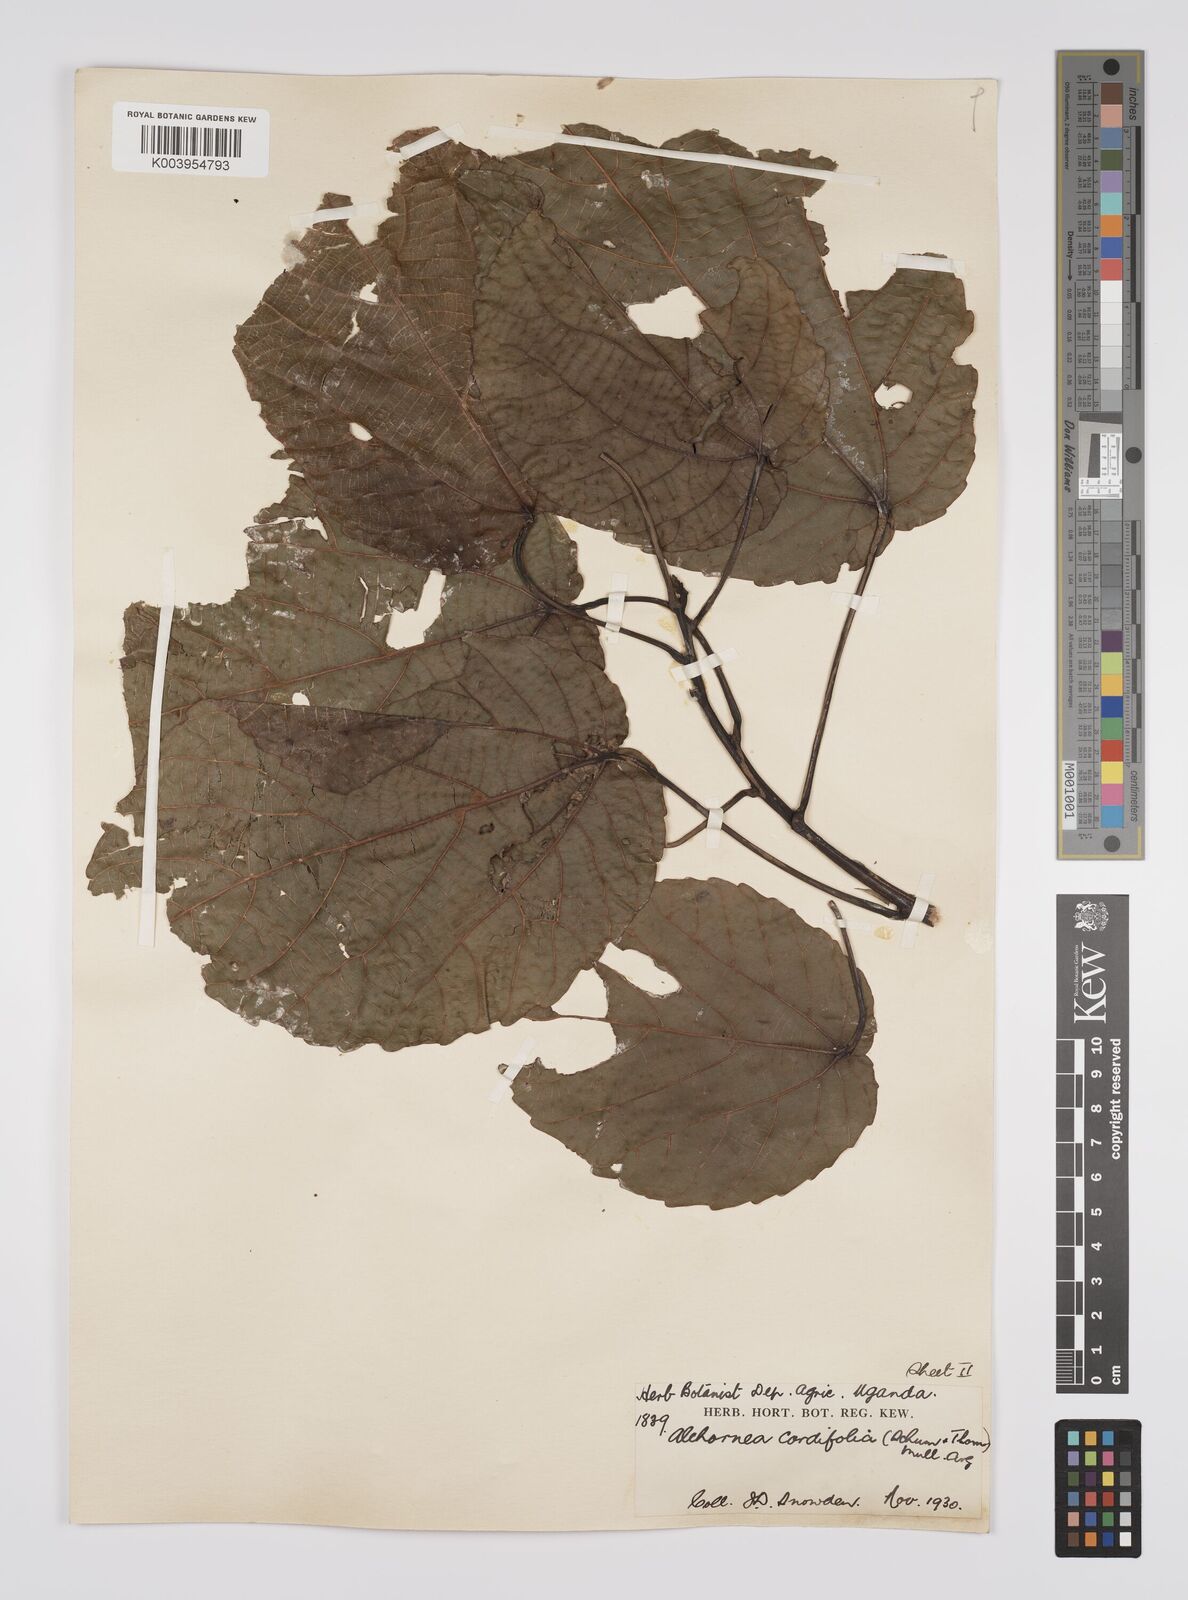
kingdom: Plantae
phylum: Tracheophyta
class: Magnoliopsida
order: Malpighiales
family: Euphorbiaceae
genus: Alchornea
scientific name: Alchornea cordifolia
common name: Christmasbush
